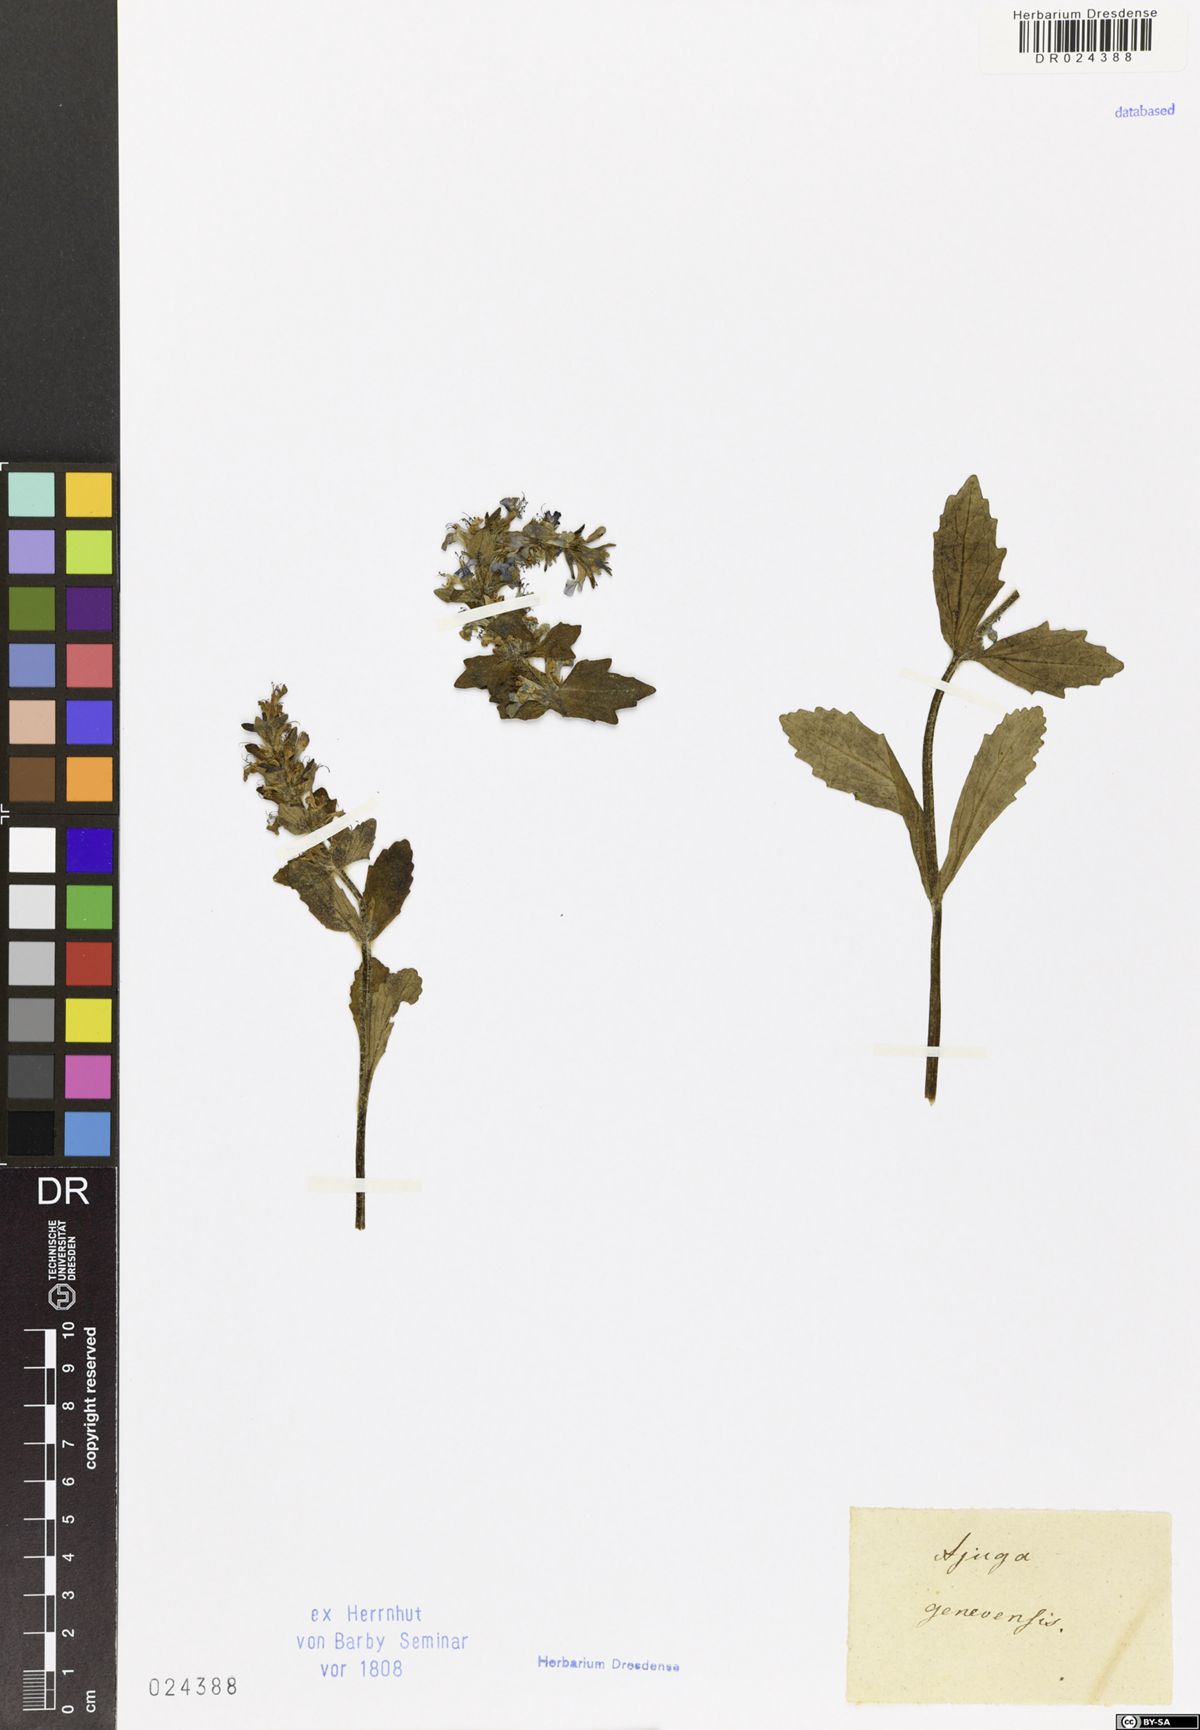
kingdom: Plantae
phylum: Tracheophyta
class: Magnoliopsida
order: Lamiales
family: Lamiaceae
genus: Ajuga
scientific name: Ajuga genevensis
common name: Blue bugle
